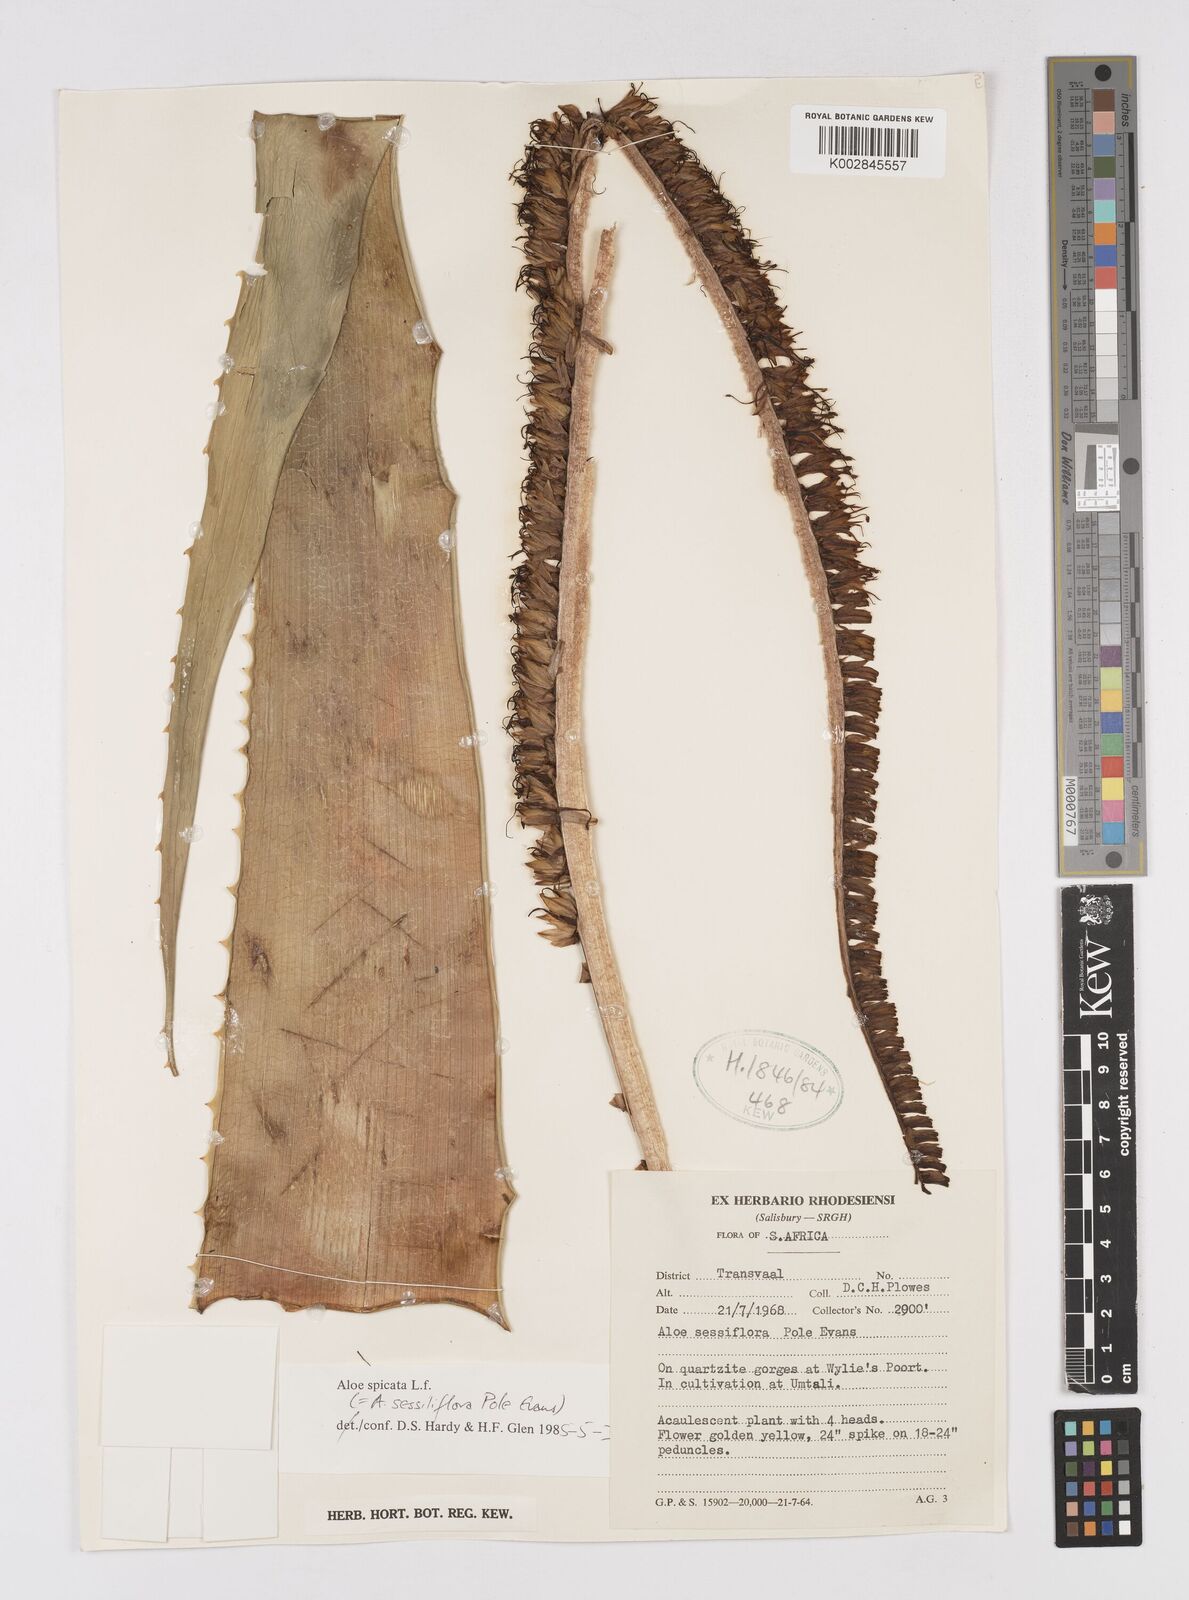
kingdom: Plantae
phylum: Tracheophyta
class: Liliopsida
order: Asparagales
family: Asphodelaceae
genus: Aloe
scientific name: Aloe spicata
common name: Gazaland aloe
